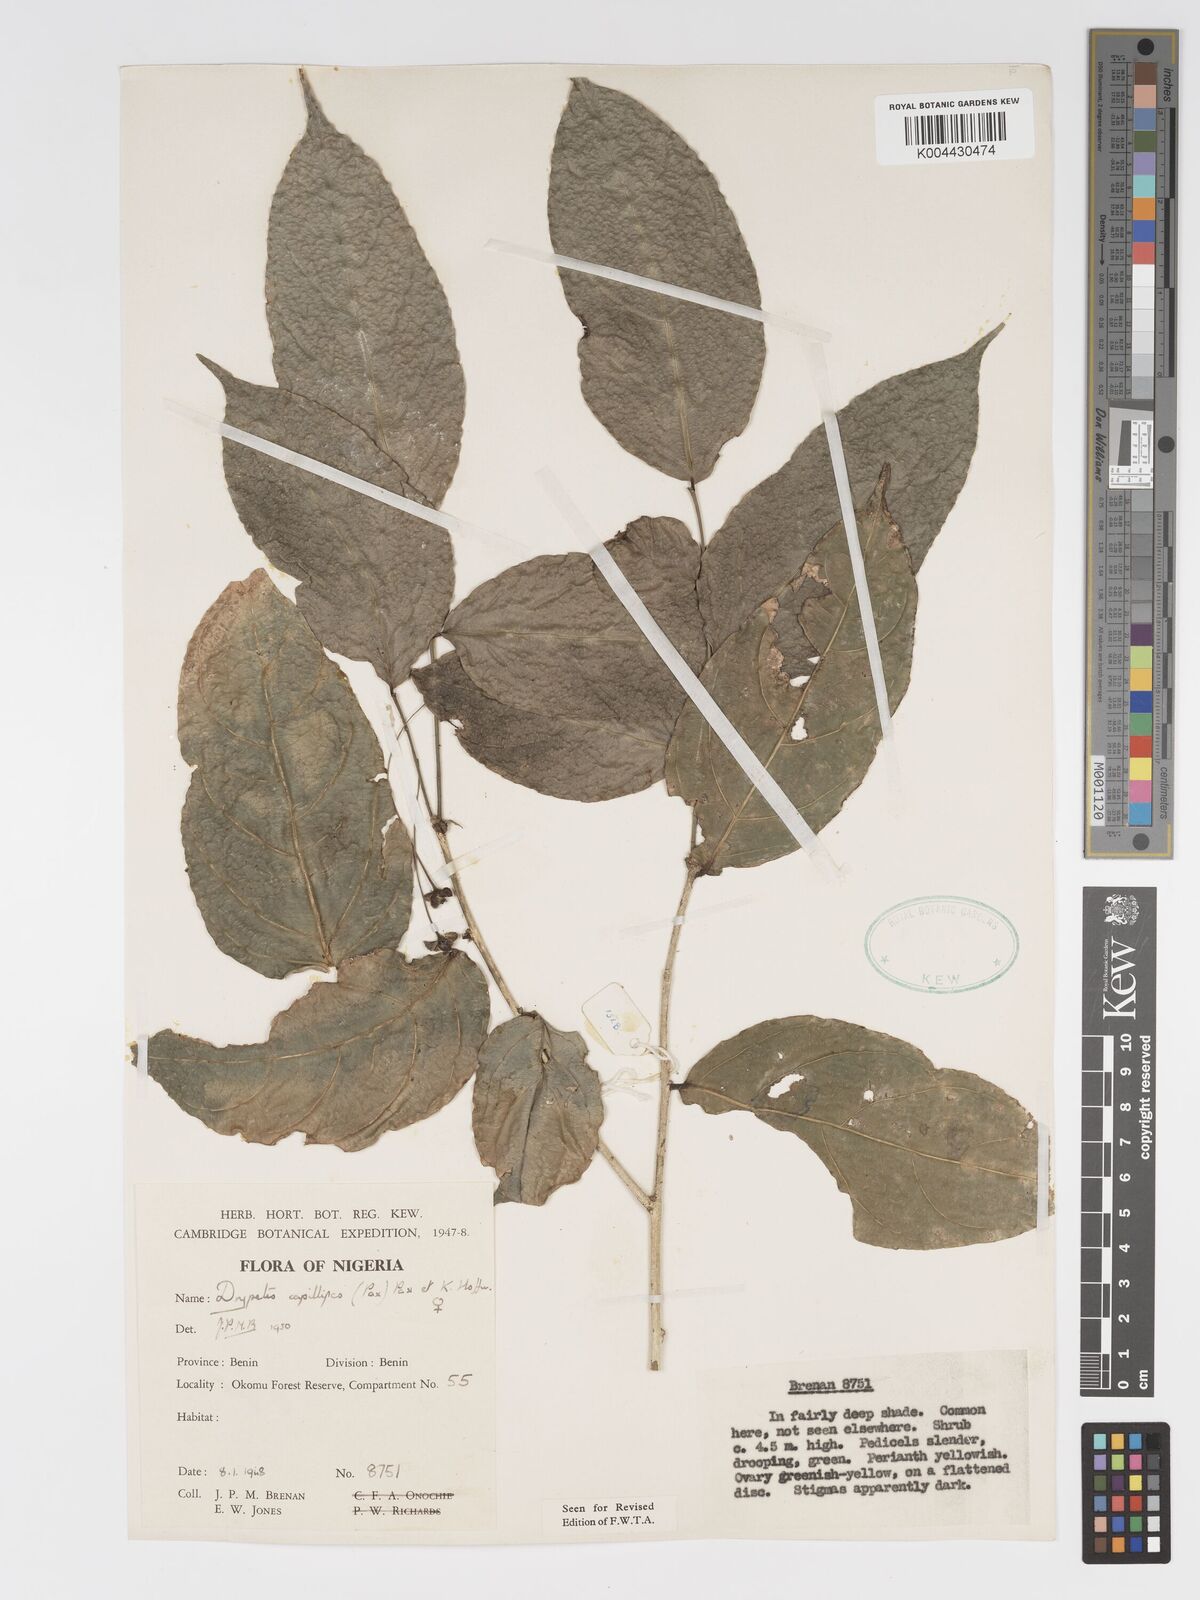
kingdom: Plantae
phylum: Tracheophyta
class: Magnoliopsida
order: Malpighiales
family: Putranjivaceae
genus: Drypetes
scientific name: Drypetes capillipes
